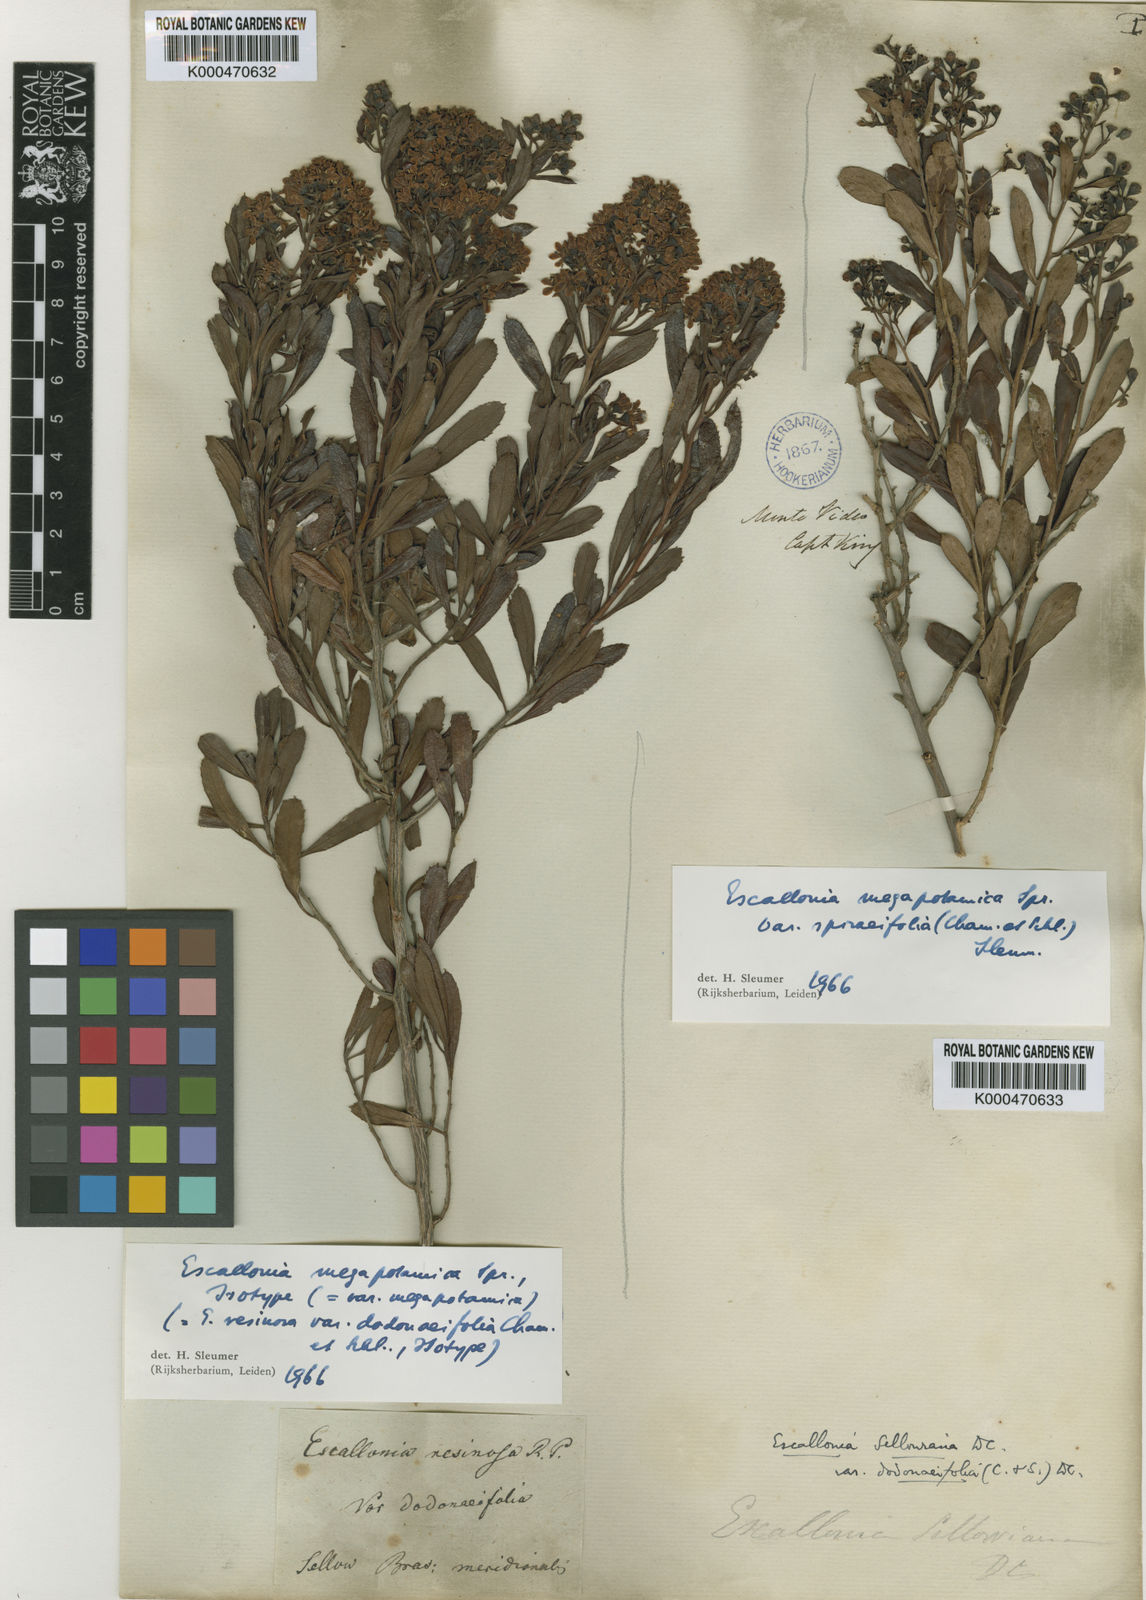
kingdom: Plantae
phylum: Tracheophyta
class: Magnoliopsida
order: Escalloniales
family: Escalloniaceae
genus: Escallonia
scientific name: Escallonia megapotamica
